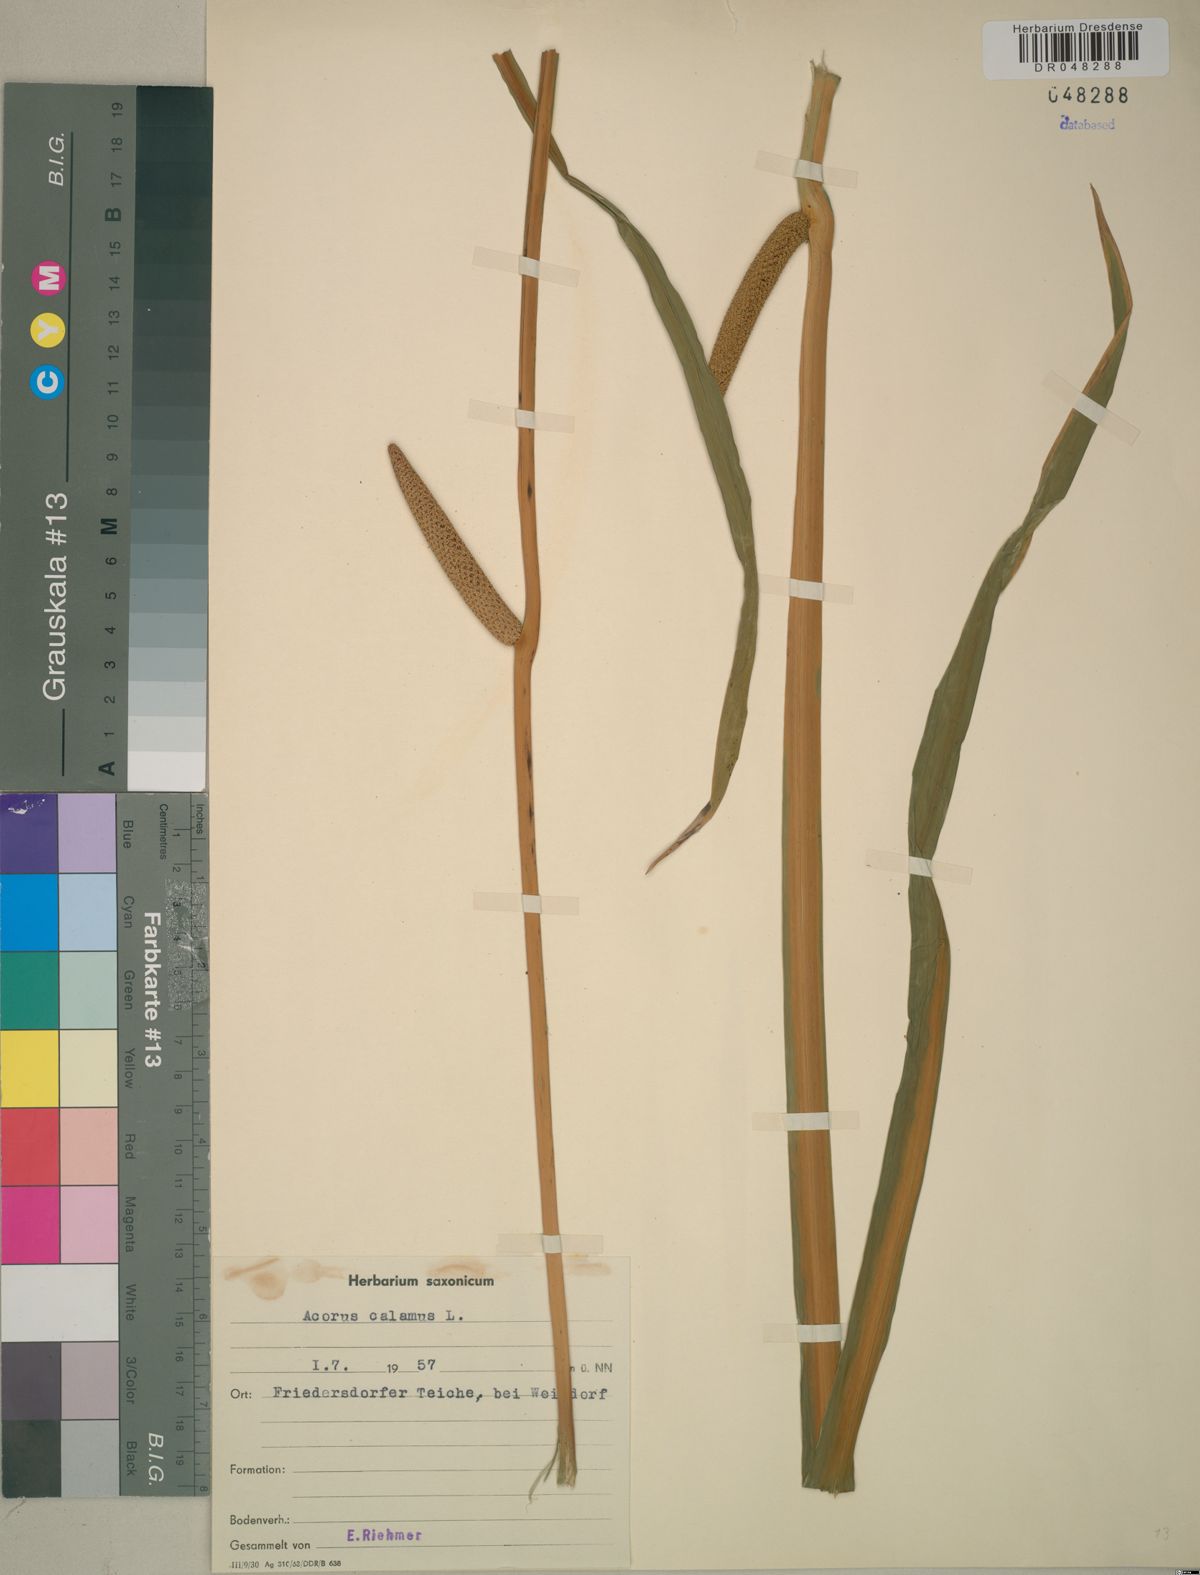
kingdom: Plantae
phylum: Tracheophyta
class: Liliopsida
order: Acorales
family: Acoraceae
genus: Acorus
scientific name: Acorus calamus
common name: Sweet-flag
